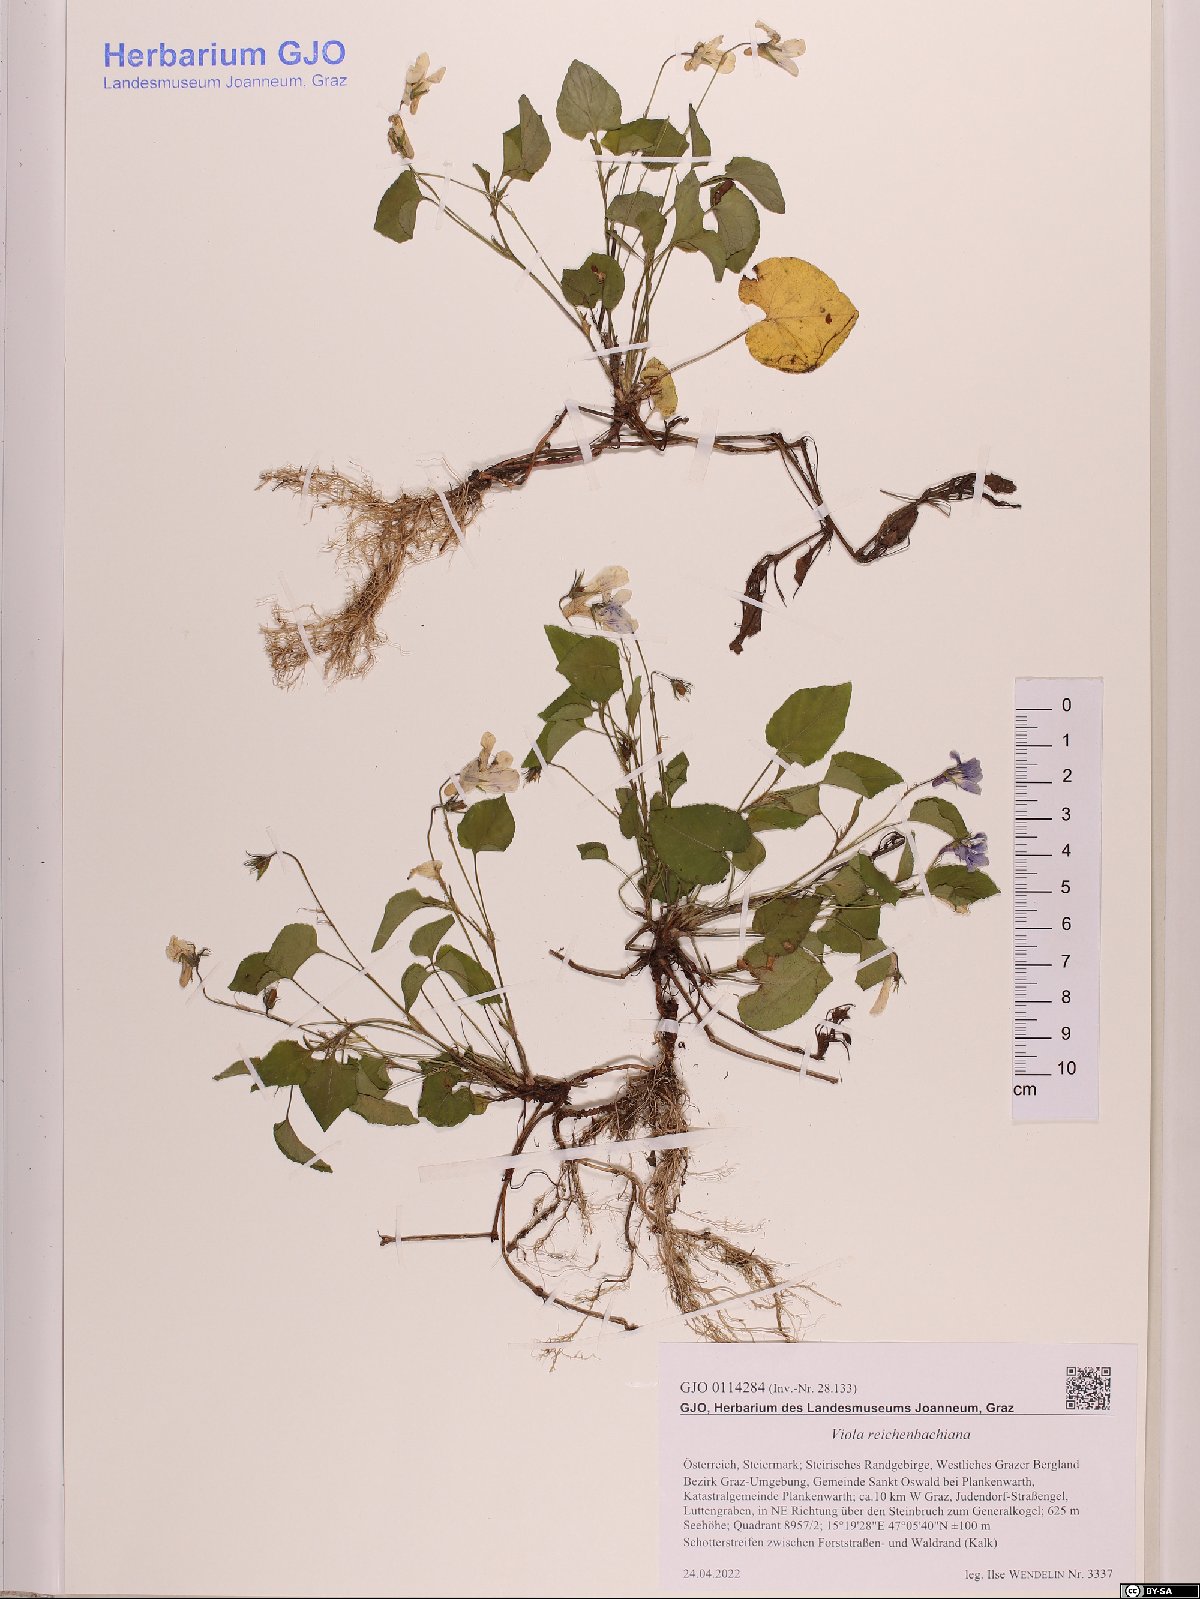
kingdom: Plantae
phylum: Tracheophyta
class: Magnoliopsida
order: Malpighiales
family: Violaceae
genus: Viola
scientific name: Viola reichenbachiana
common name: Early dog-violet
